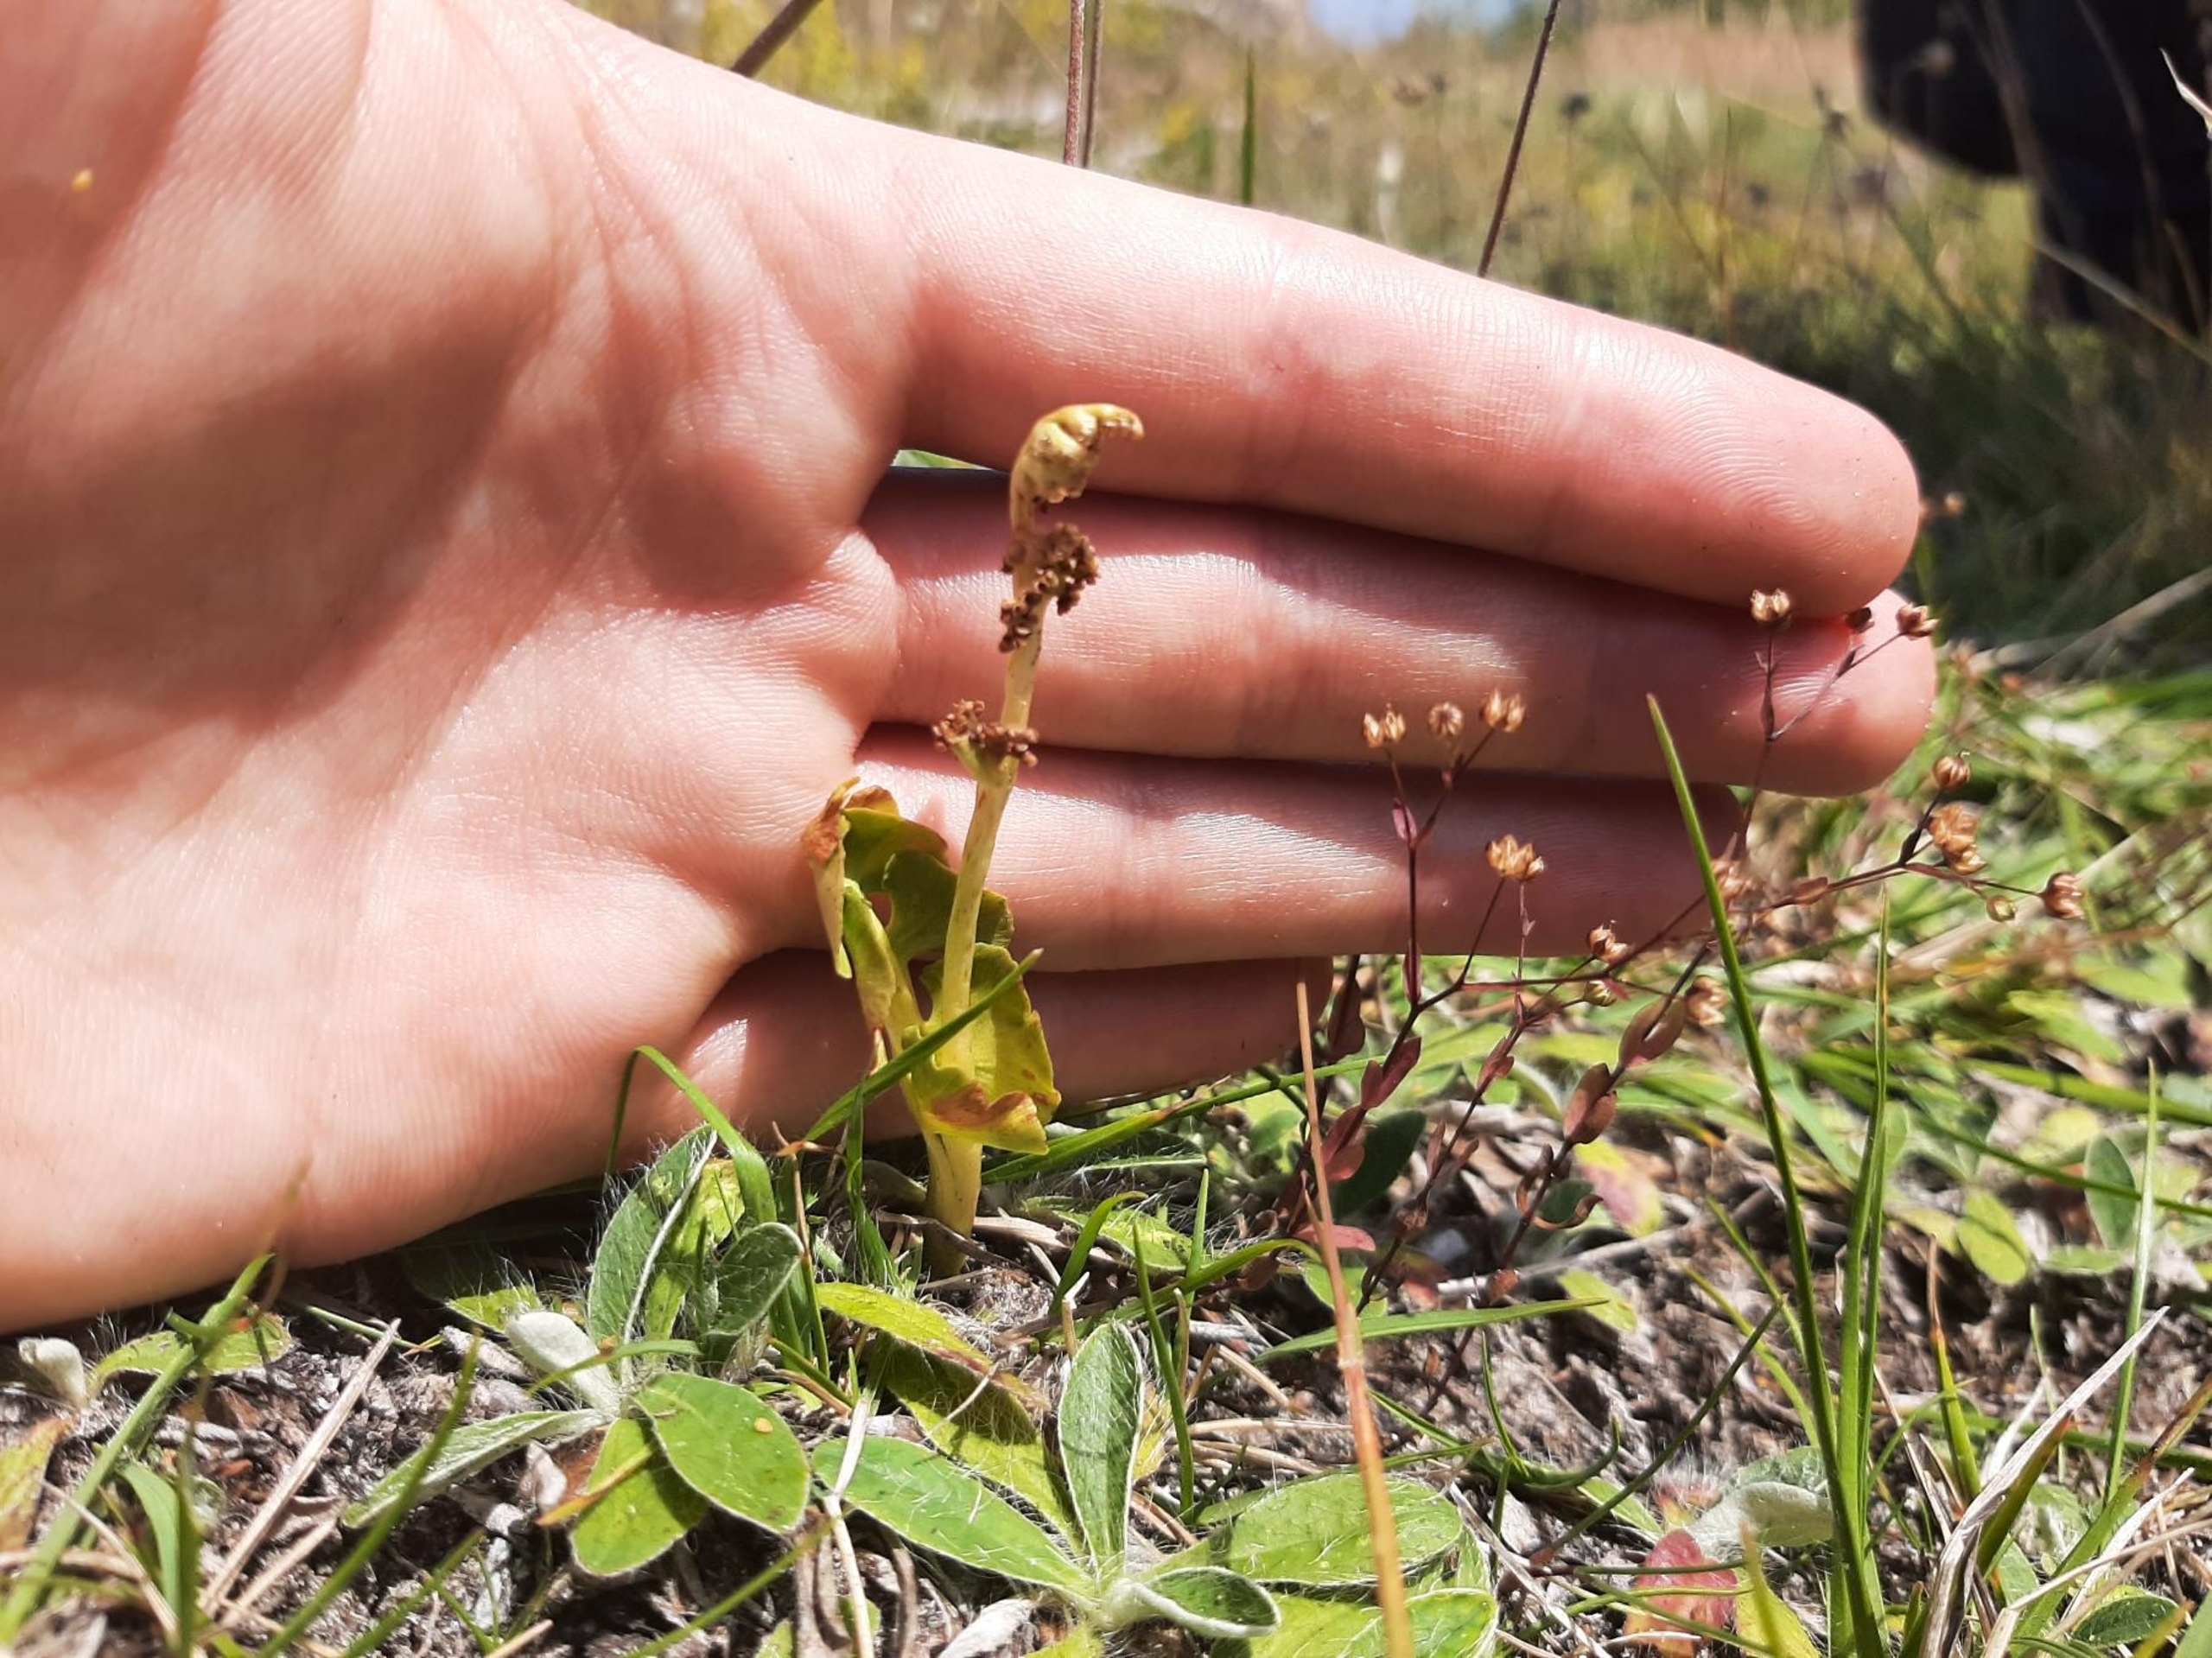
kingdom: Plantae
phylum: Tracheophyta
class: Polypodiopsida
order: Ophioglossales
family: Ophioglossaceae
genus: Botrychium
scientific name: Botrychium lunaria
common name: Almindelig månerude
